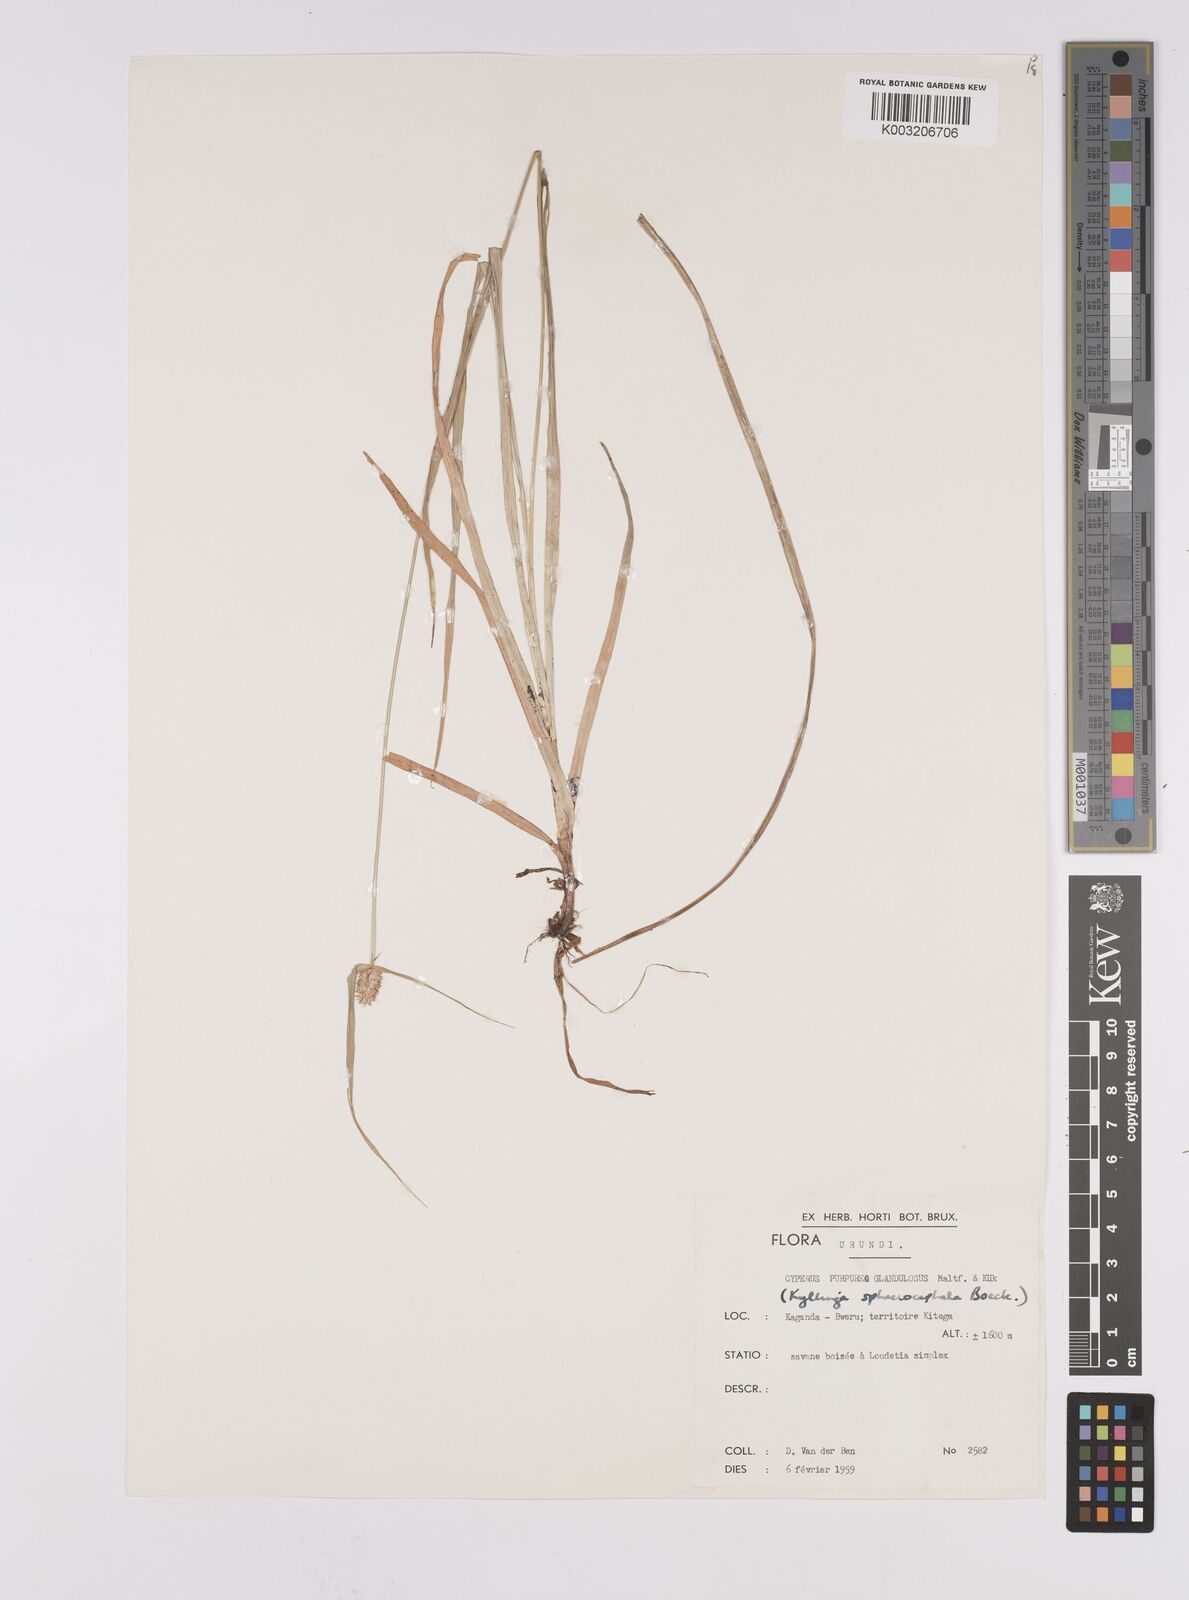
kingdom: Plantae
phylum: Tracheophyta
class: Liliopsida
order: Poales
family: Cyperaceae
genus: Cyperus
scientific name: Cyperus sphaerolepis
